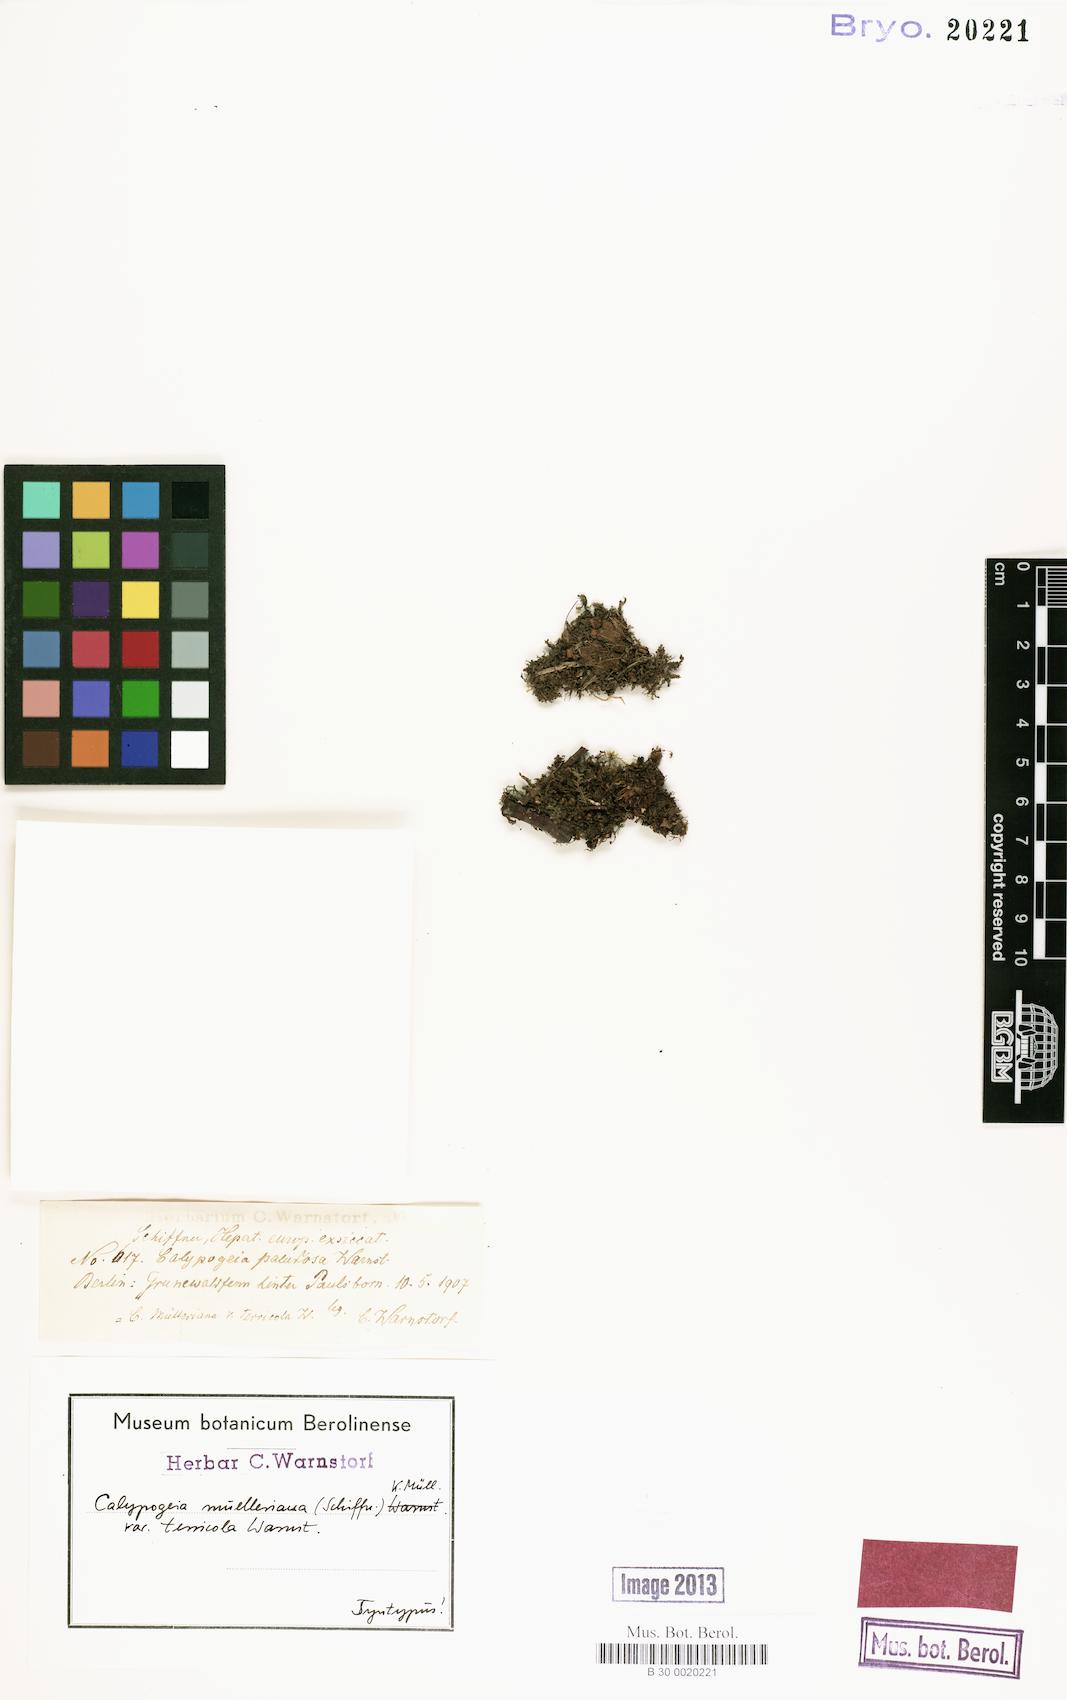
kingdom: Plantae
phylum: Marchantiophyta
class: Jungermanniopsida
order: Jungermanniales
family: Calypogeiaceae
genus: Calypogeia
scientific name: Calypogeia muelleriana
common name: Mueller s pouchwort
